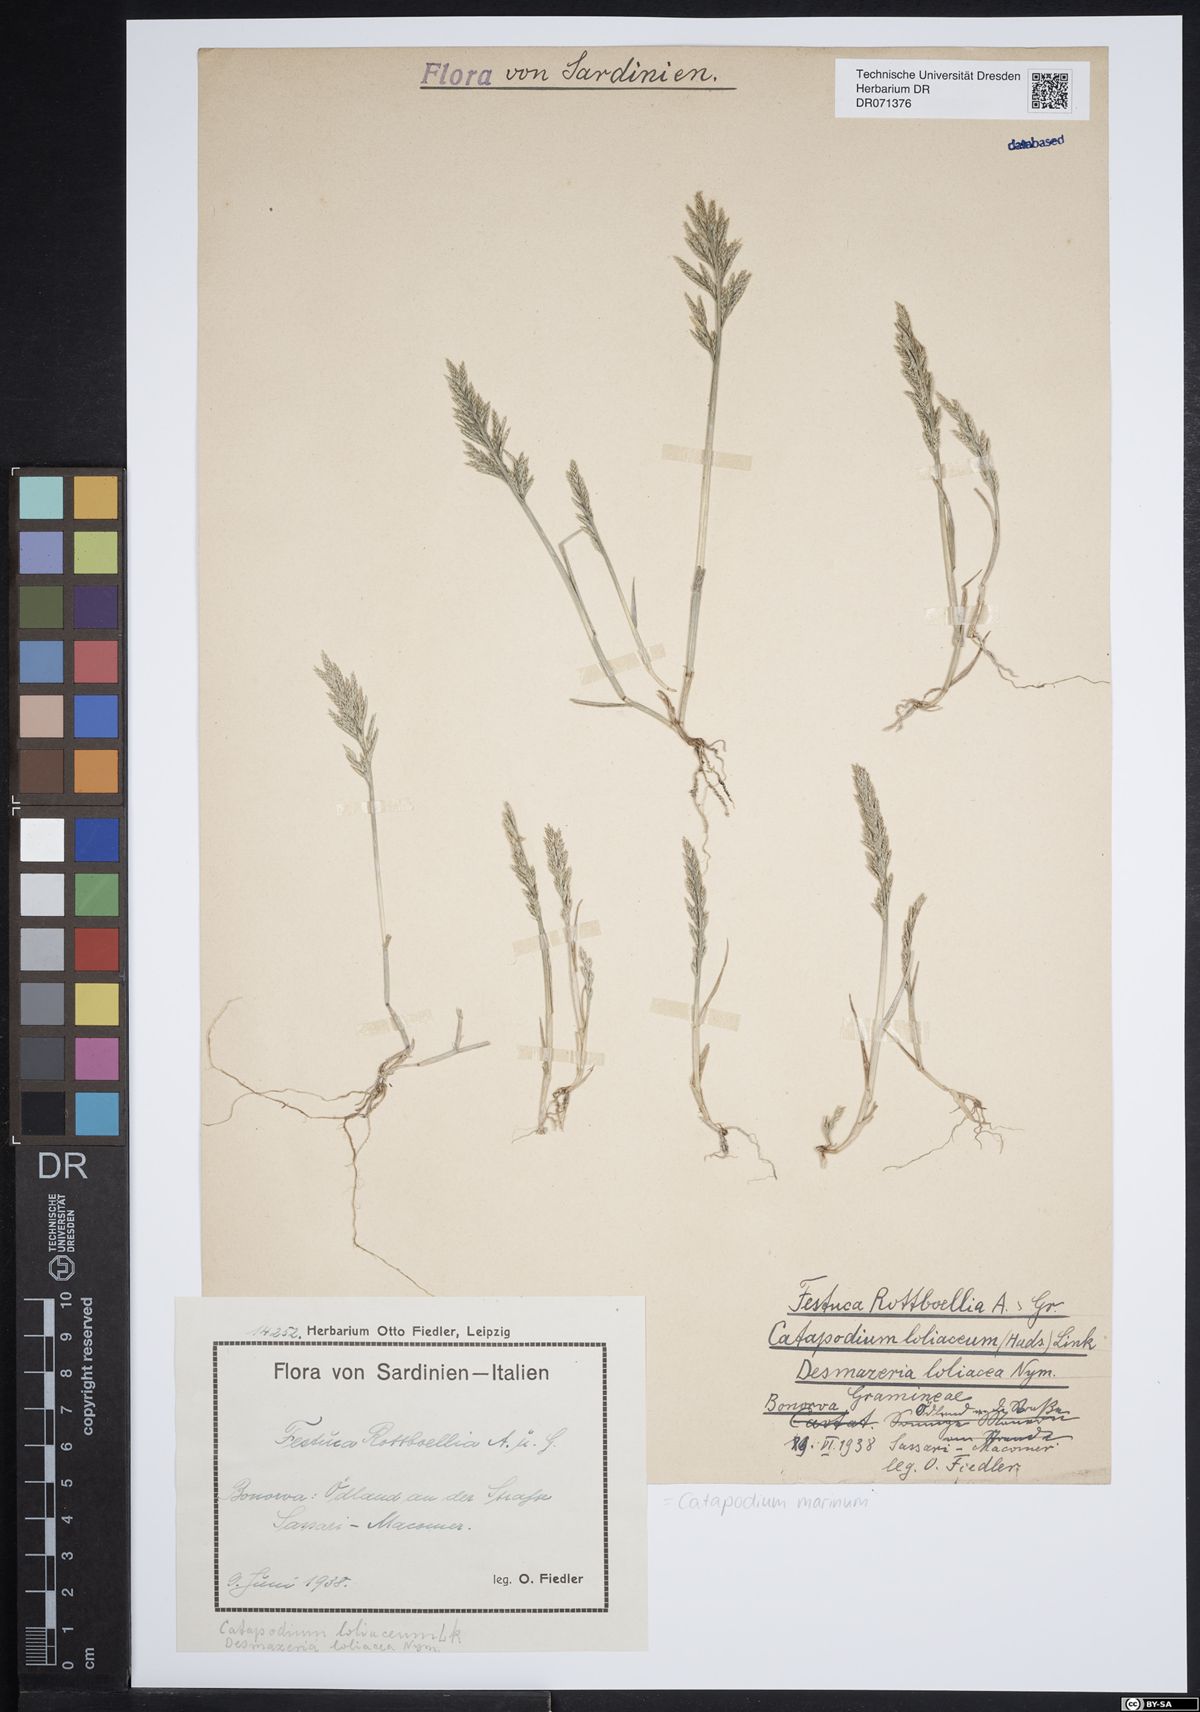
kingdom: Plantae
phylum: Tracheophyta
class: Liliopsida
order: Poales
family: Poaceae
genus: Catapodium
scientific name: Catapodium marinum
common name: Sea fern-grass
